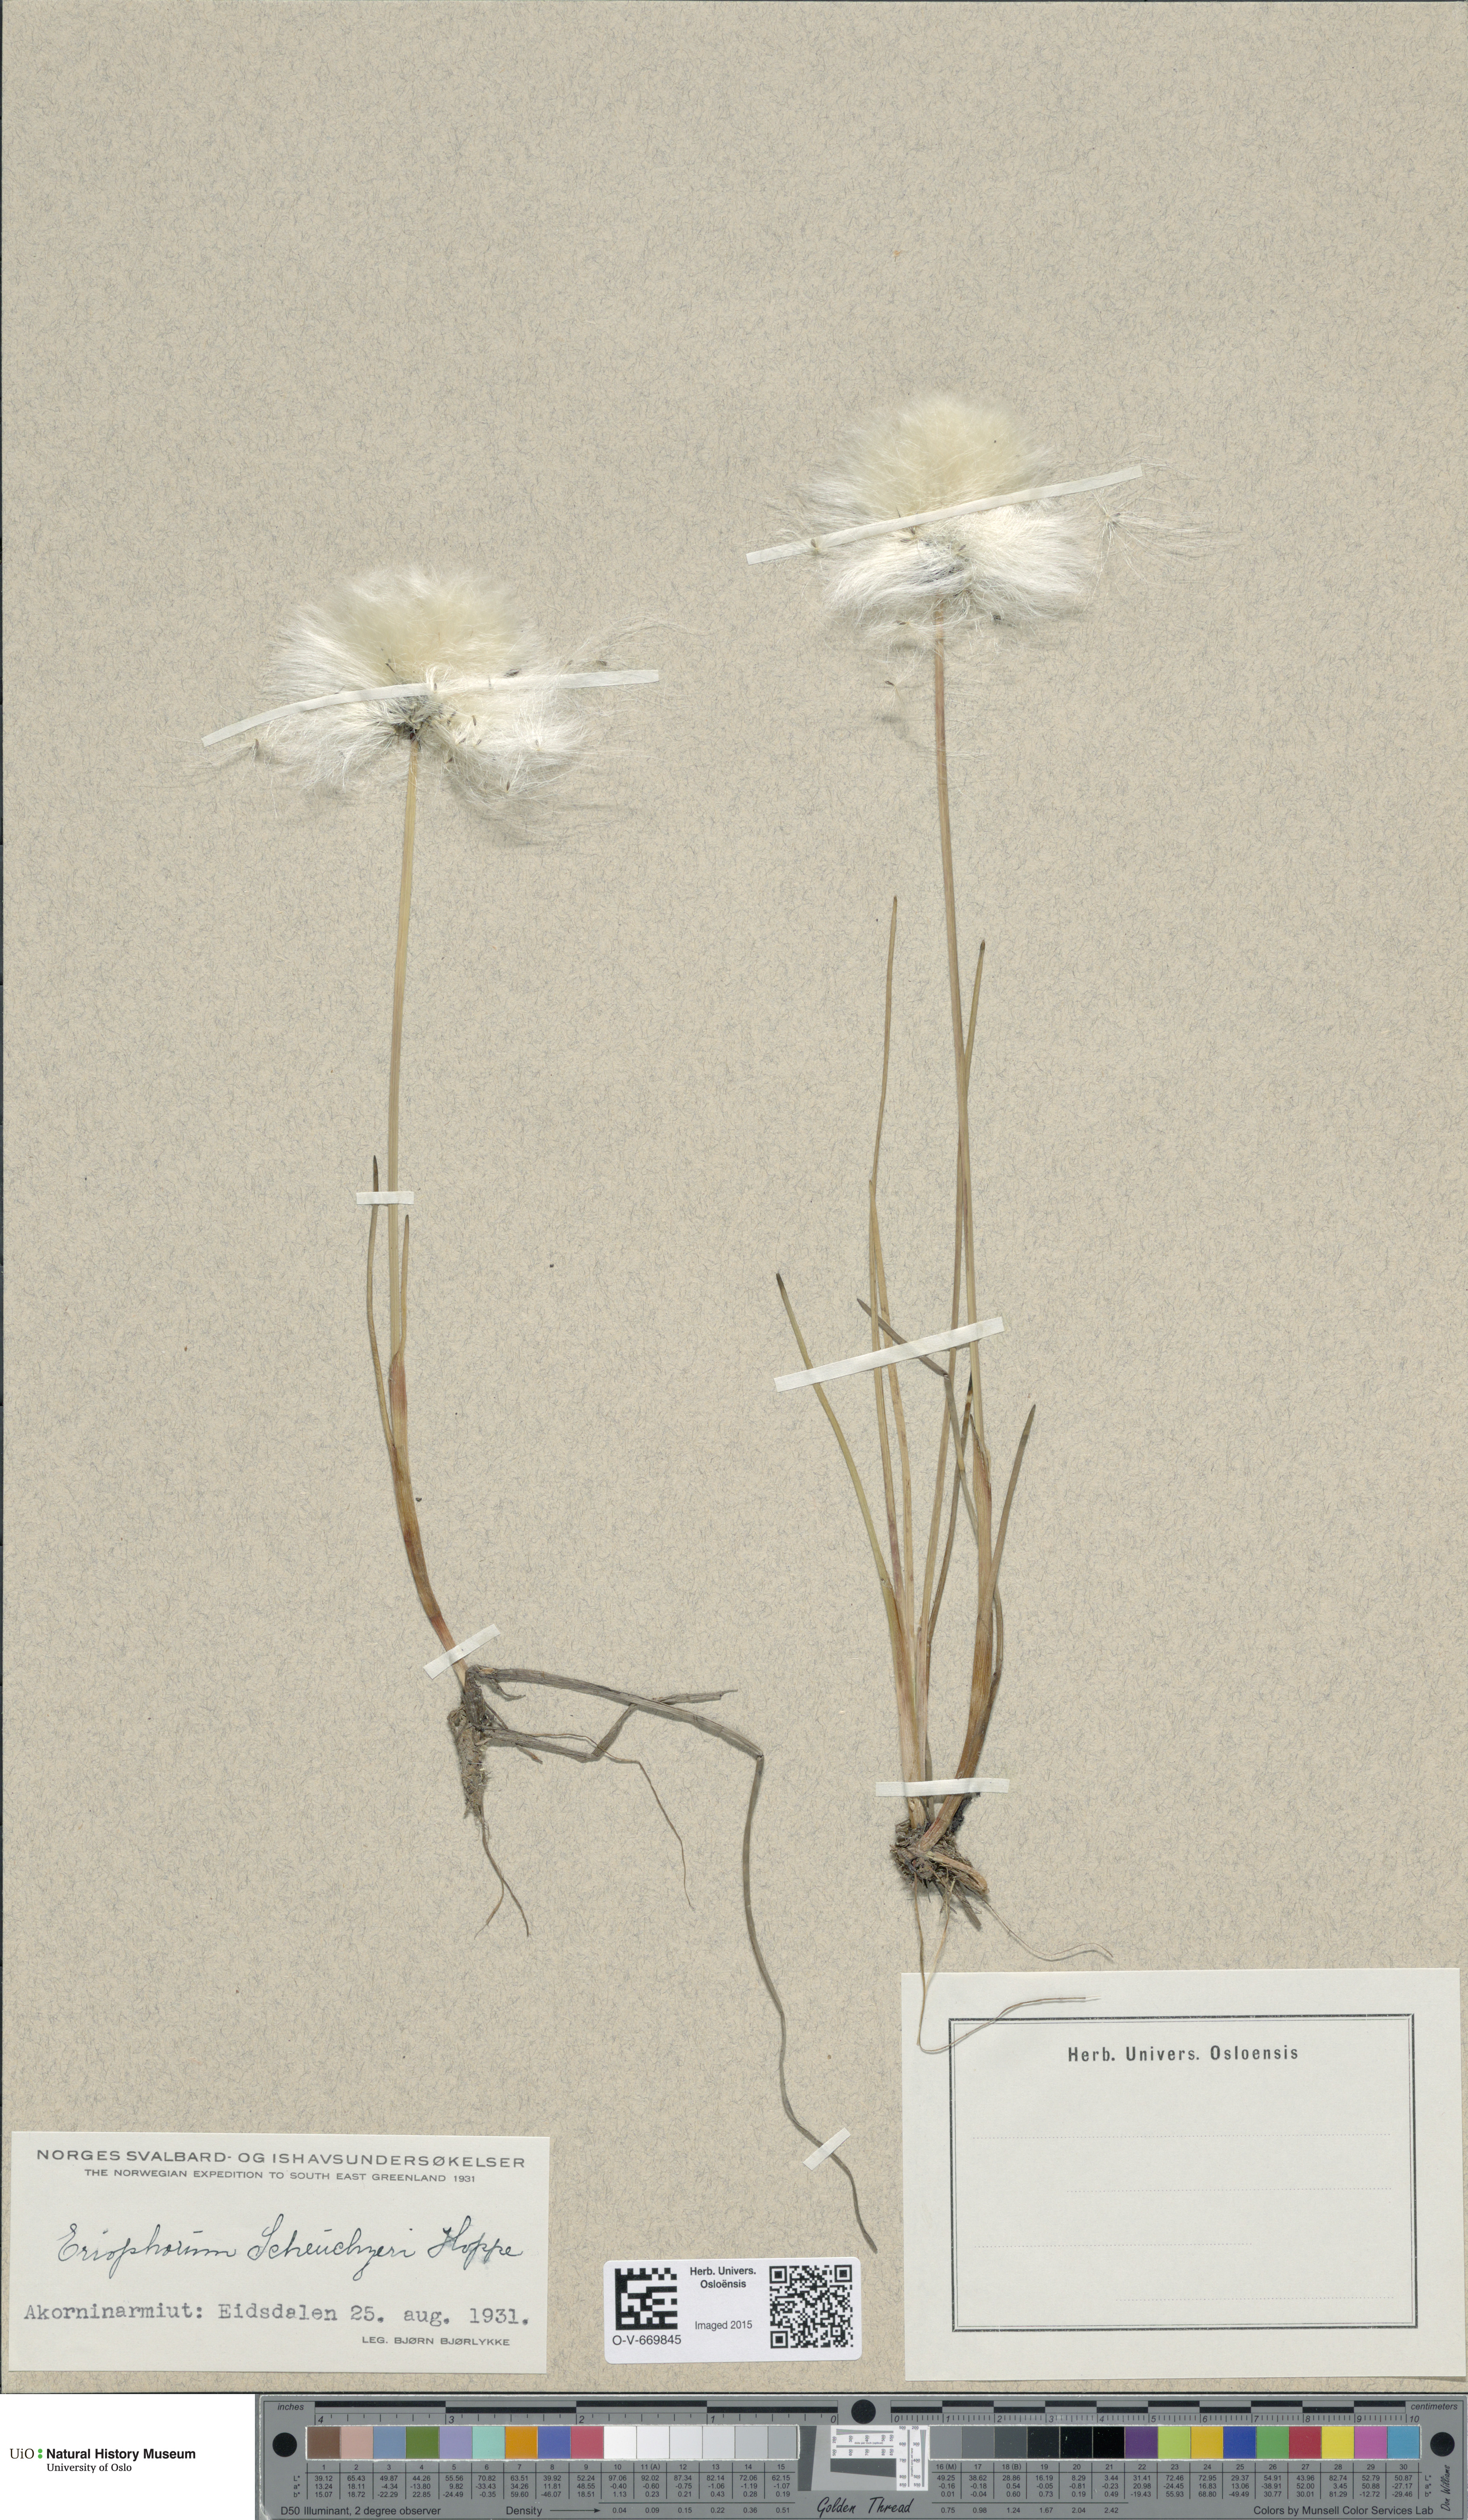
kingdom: Plantae
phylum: Tracheophyta
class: Liliopsida
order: Poales
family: Cyperaceae
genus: Eriophorum
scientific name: Eriophorum scheuchzeri
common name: Scheuchzer's cottongrass
